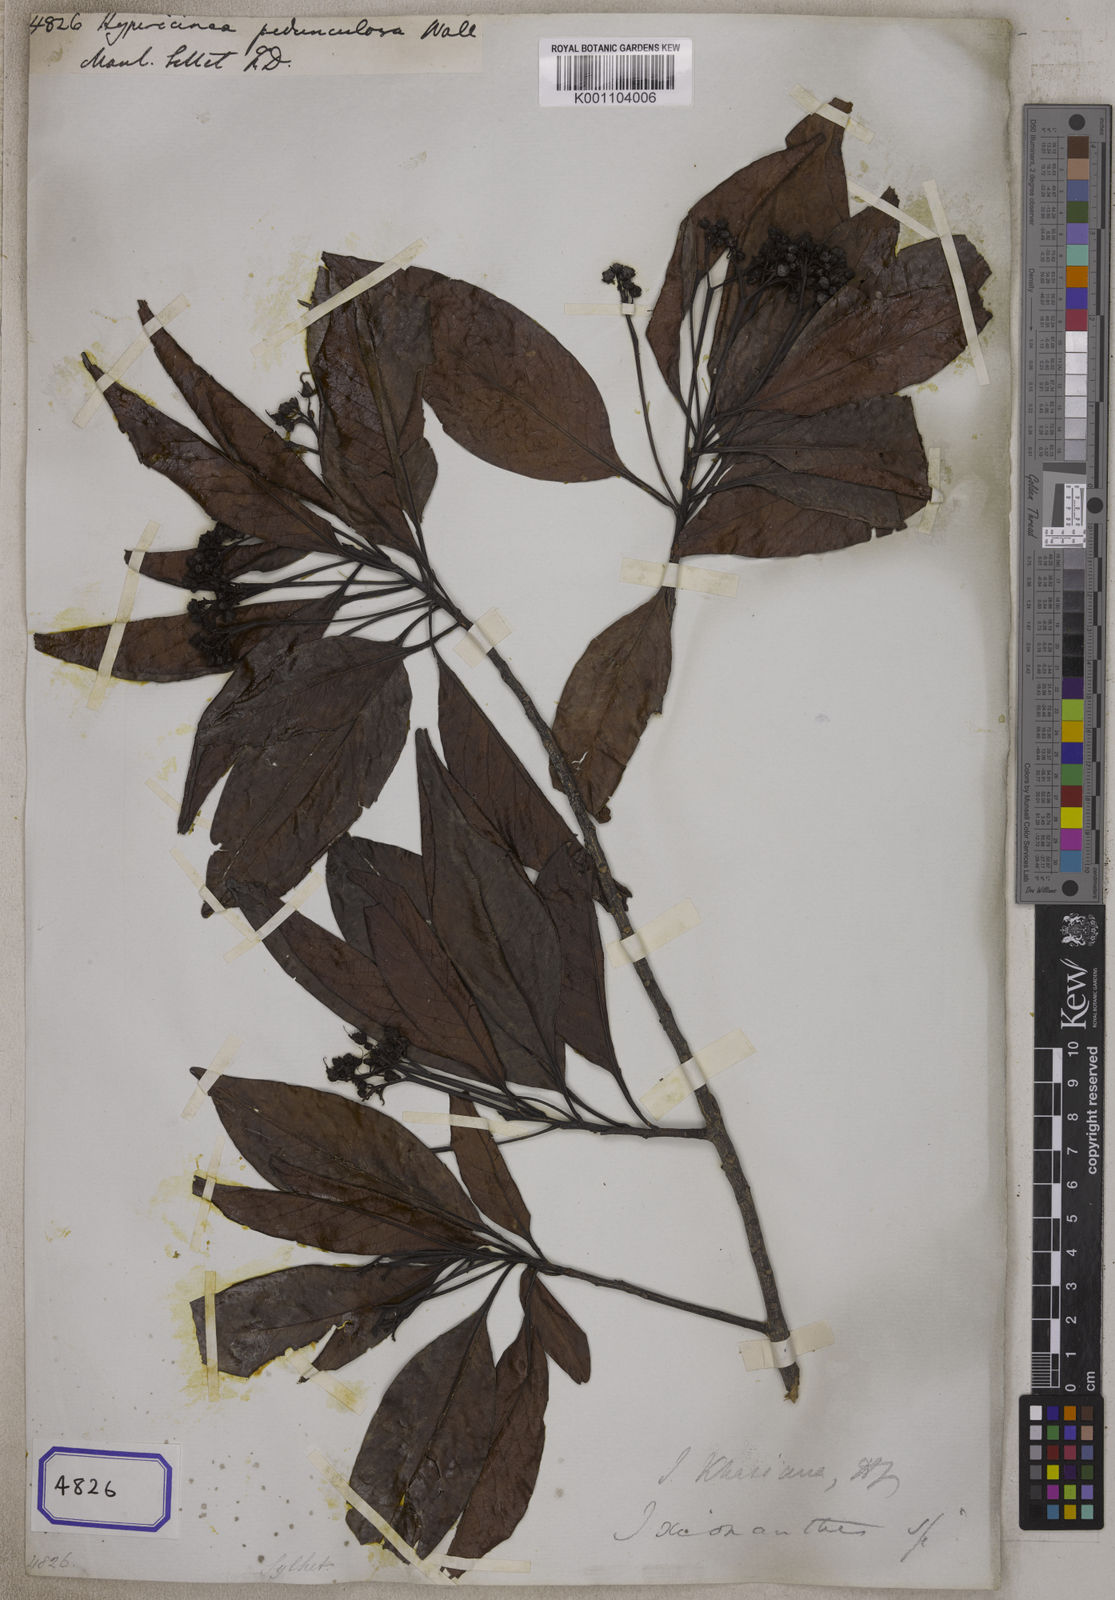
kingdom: Plantae
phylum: Tracheophyta
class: Magnoliopsida
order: Malpighiales
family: Ixonanthaceae
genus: Ixonanthes
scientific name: Ixonanthes reticulata
